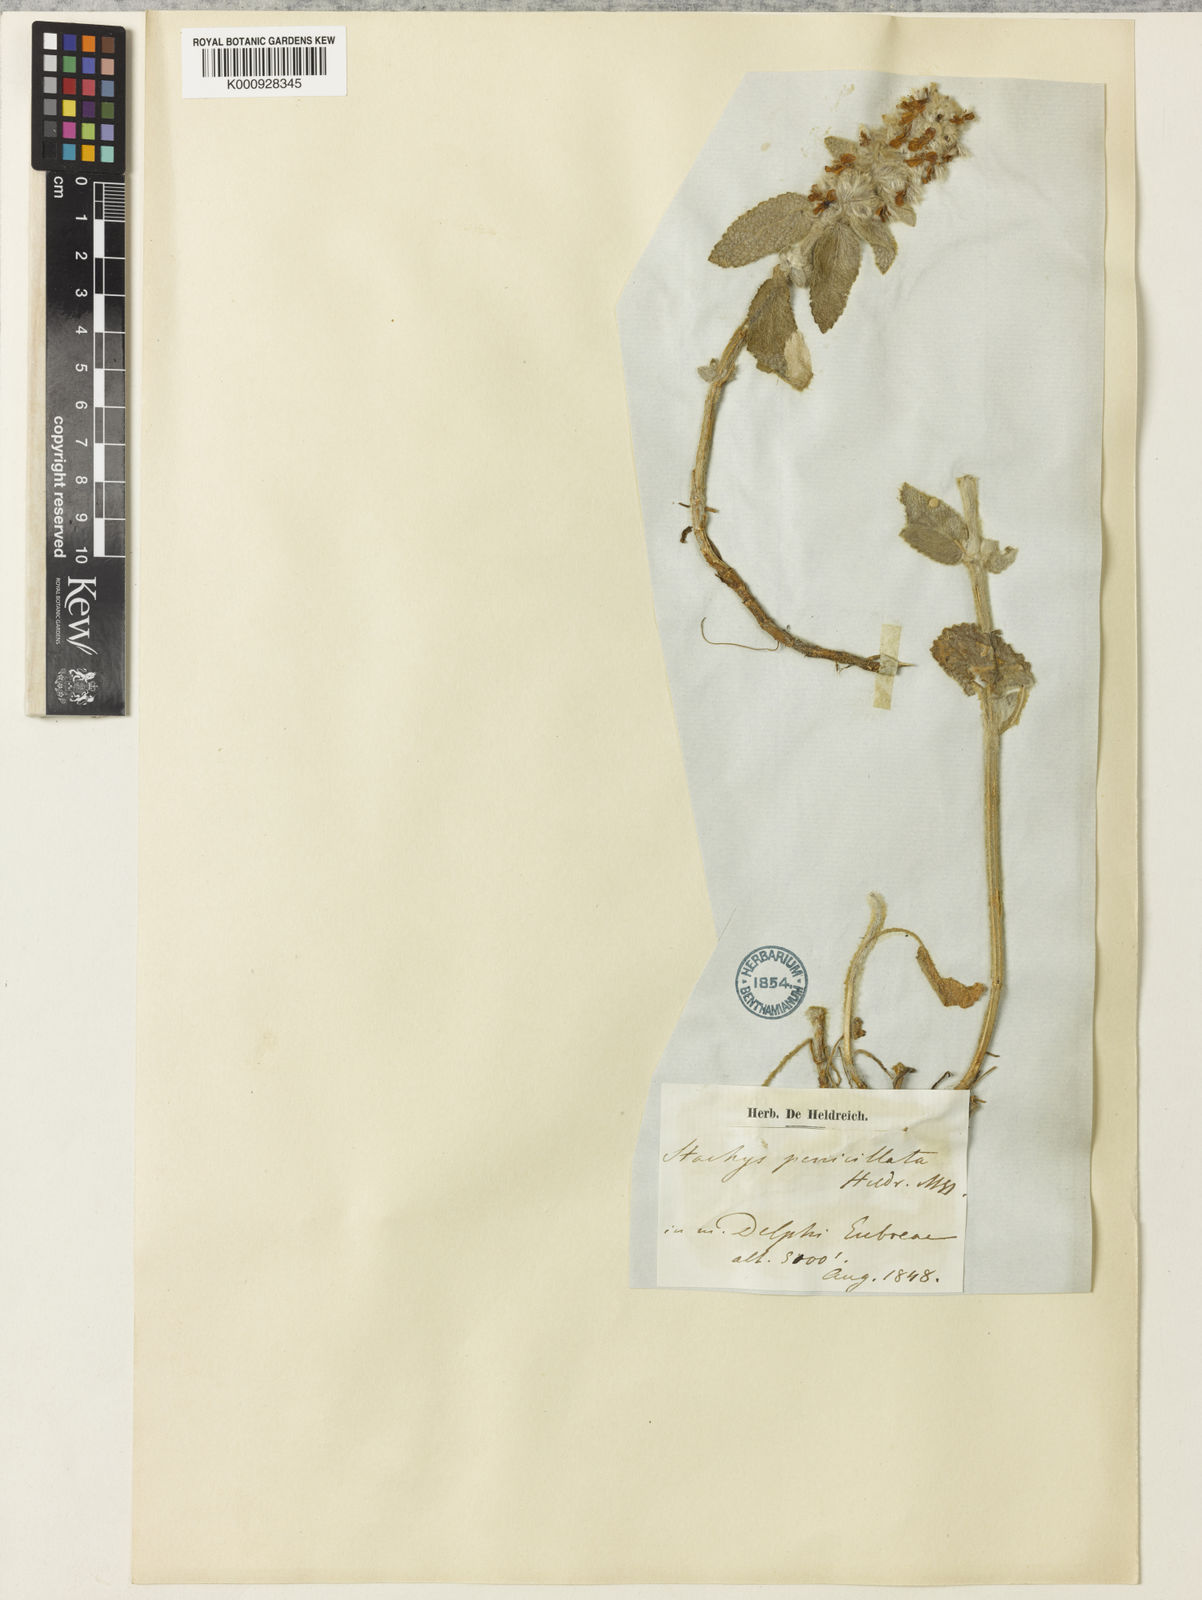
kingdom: Plantae
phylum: Tracheophyta
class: Magnoliopsida
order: Lamiales
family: Lamiaceae
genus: Stachys
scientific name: Stachys cretica
